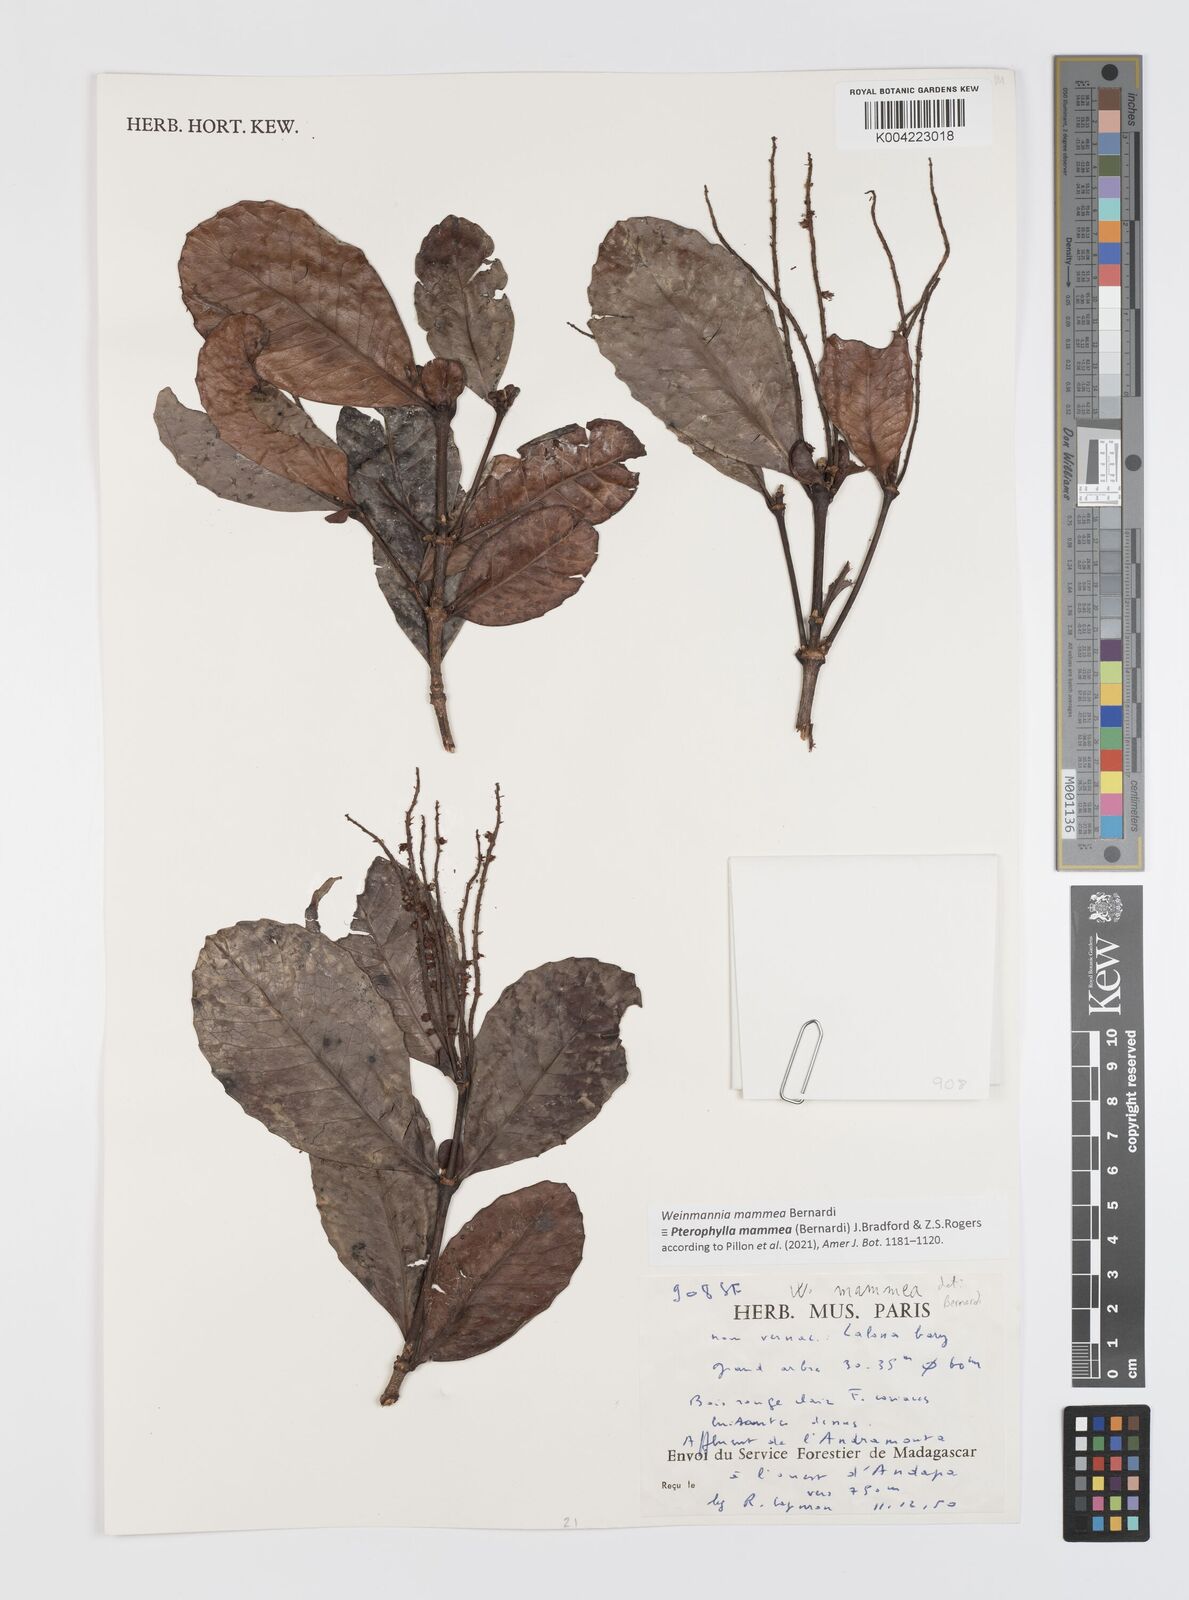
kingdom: Plantae
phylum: Tracheophyta
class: Magnoliopsida
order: Oxalidales
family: Cunoniaceae
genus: Pterophylla
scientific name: Pterophylla mammea
